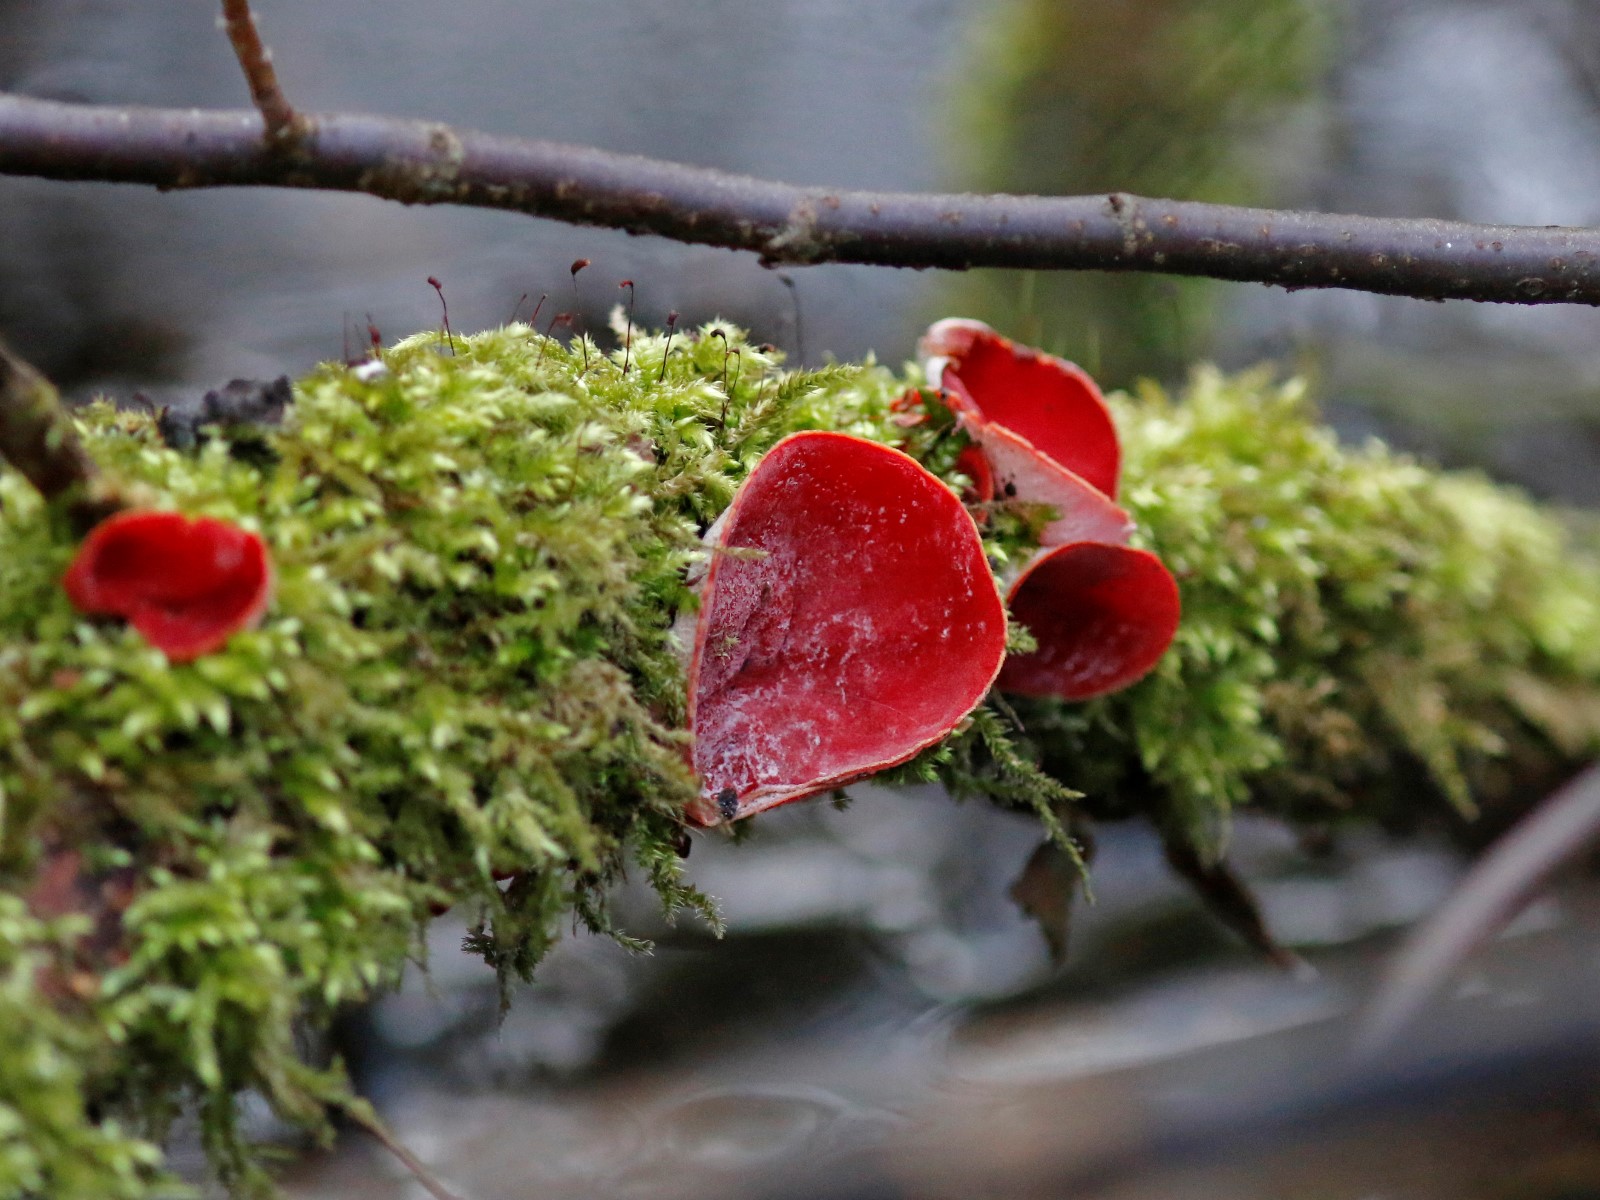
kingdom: Fungi
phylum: Ascomycota
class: Pezizomycetes
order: Pezizales
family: Sarcoscyphaceae
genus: Sarcoscypha
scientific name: Sarcoscypha austriaca
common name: krølhåret pragtbæger
